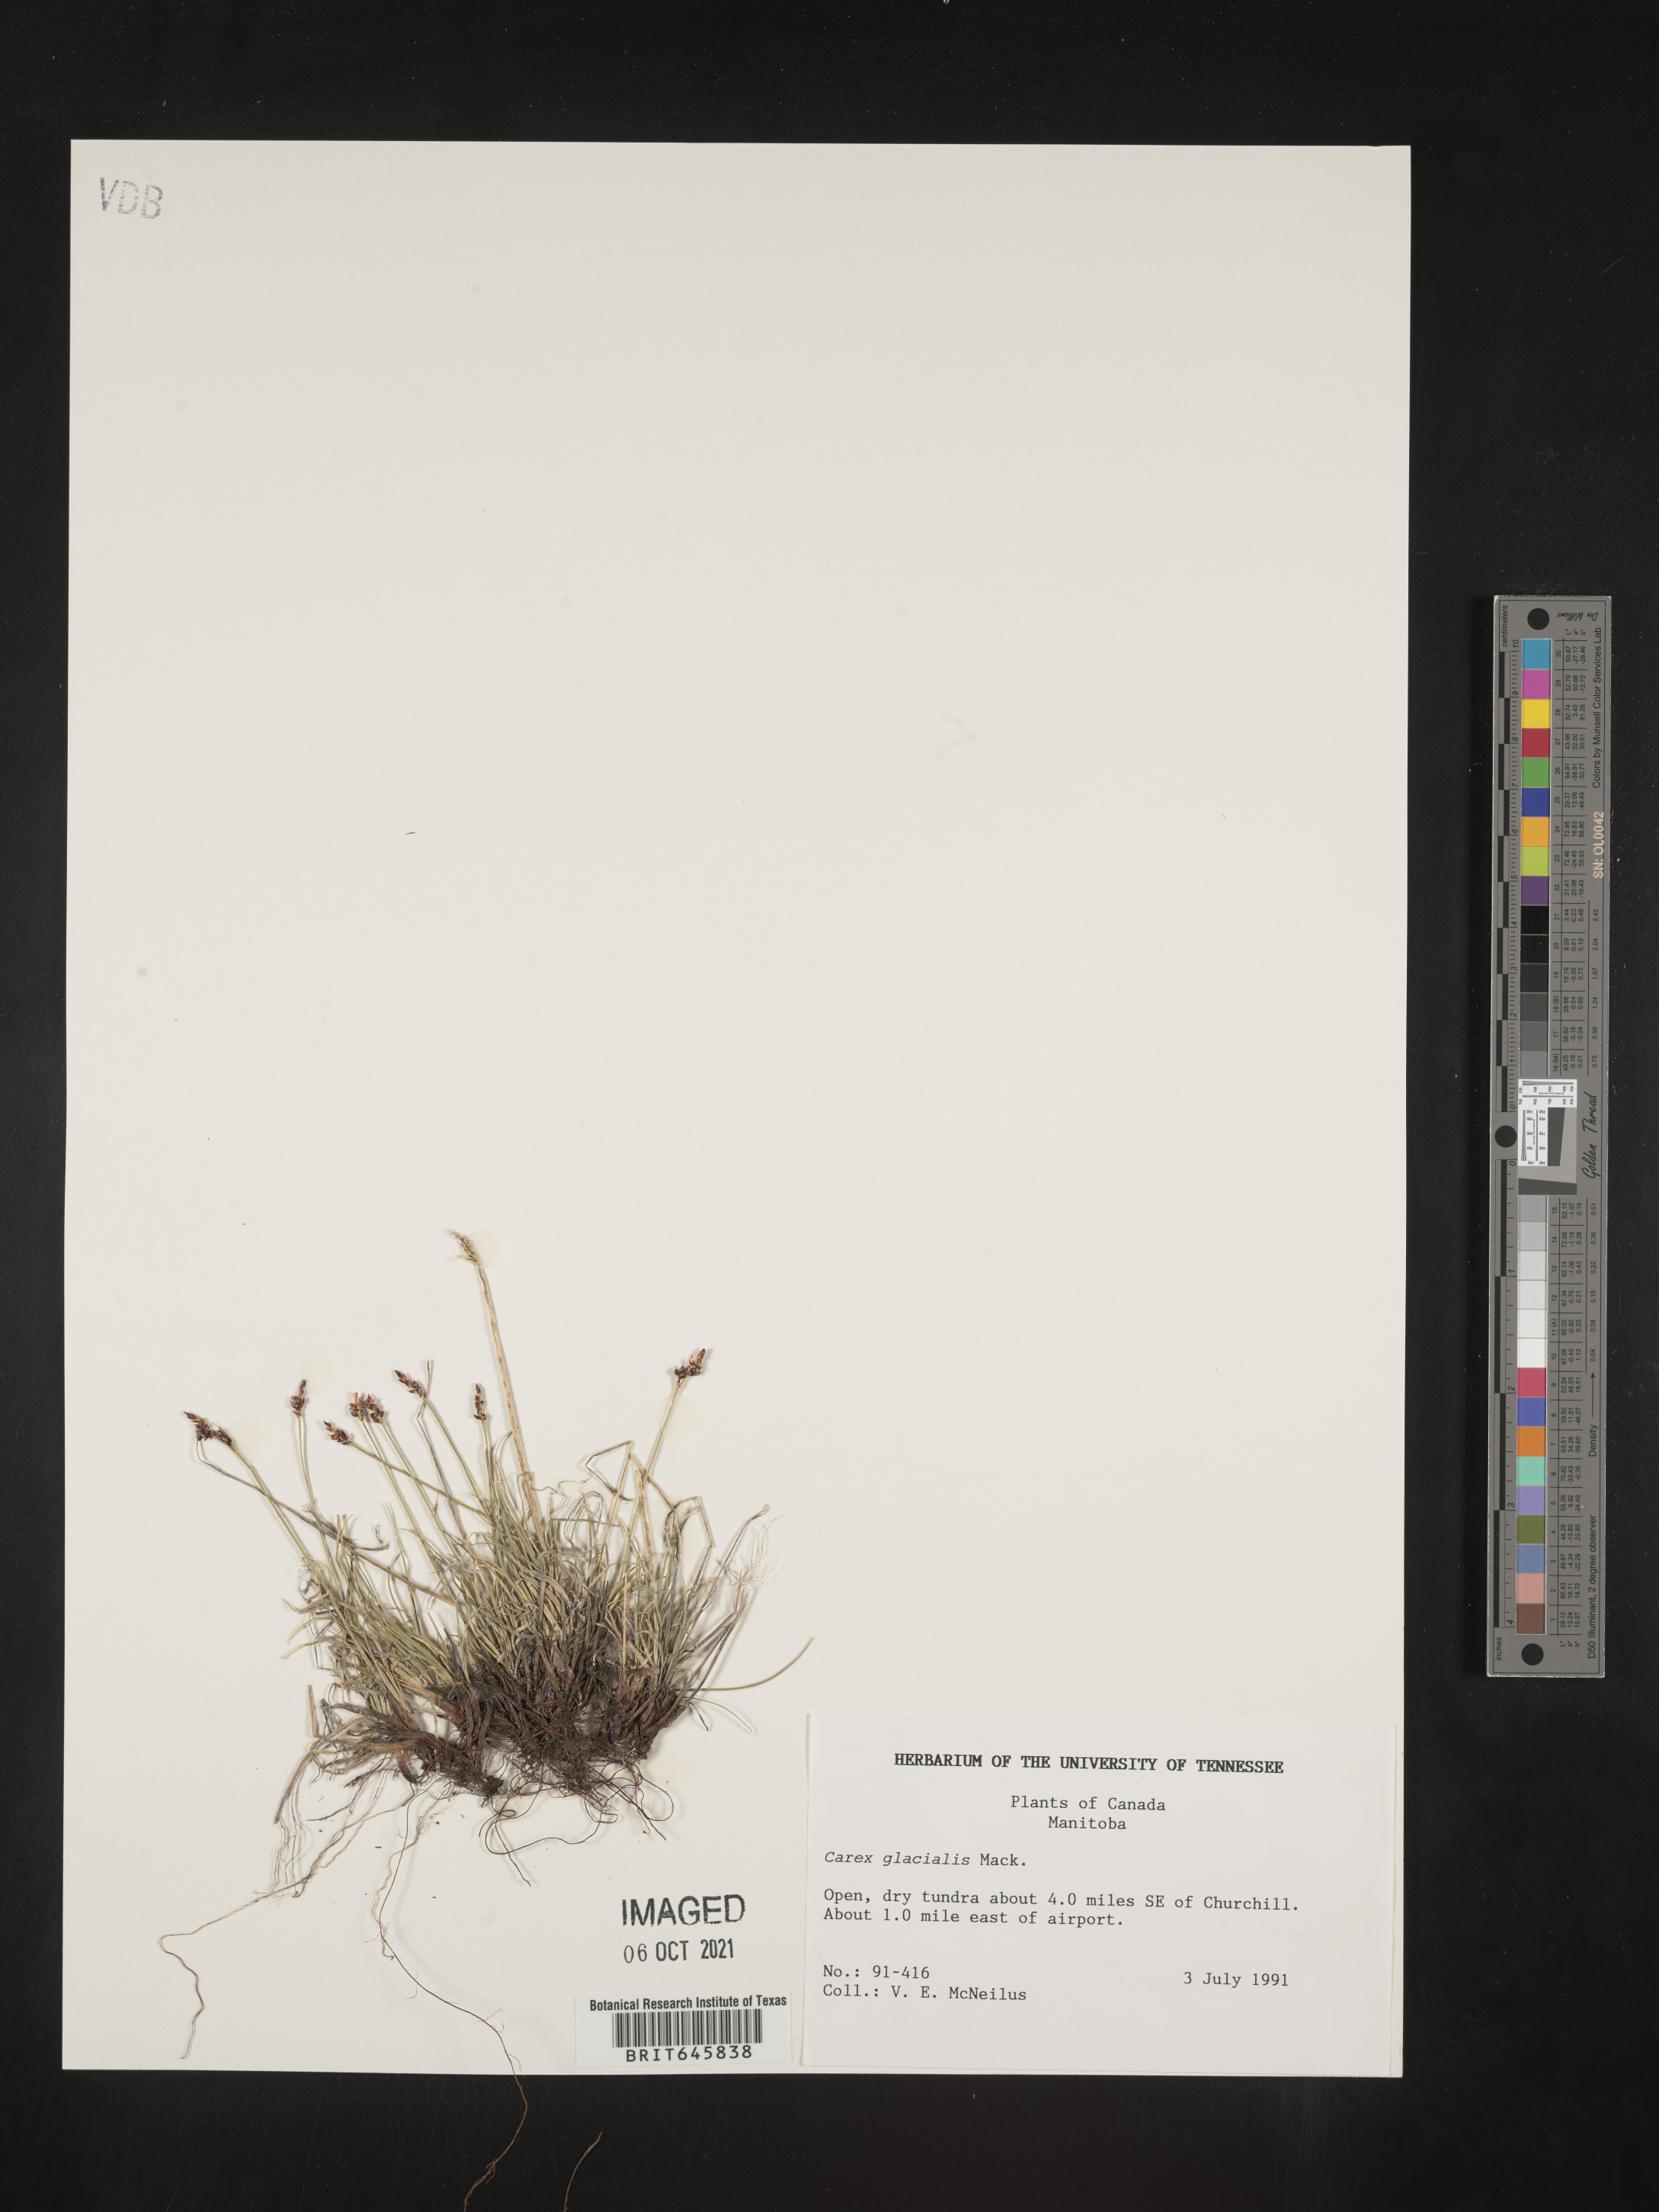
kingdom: Plantae
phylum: Tracheophyta
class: Liliopsida
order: Poales
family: Cyperaceae
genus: Carex
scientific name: Carex glacialis
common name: Newfoundland sedge
